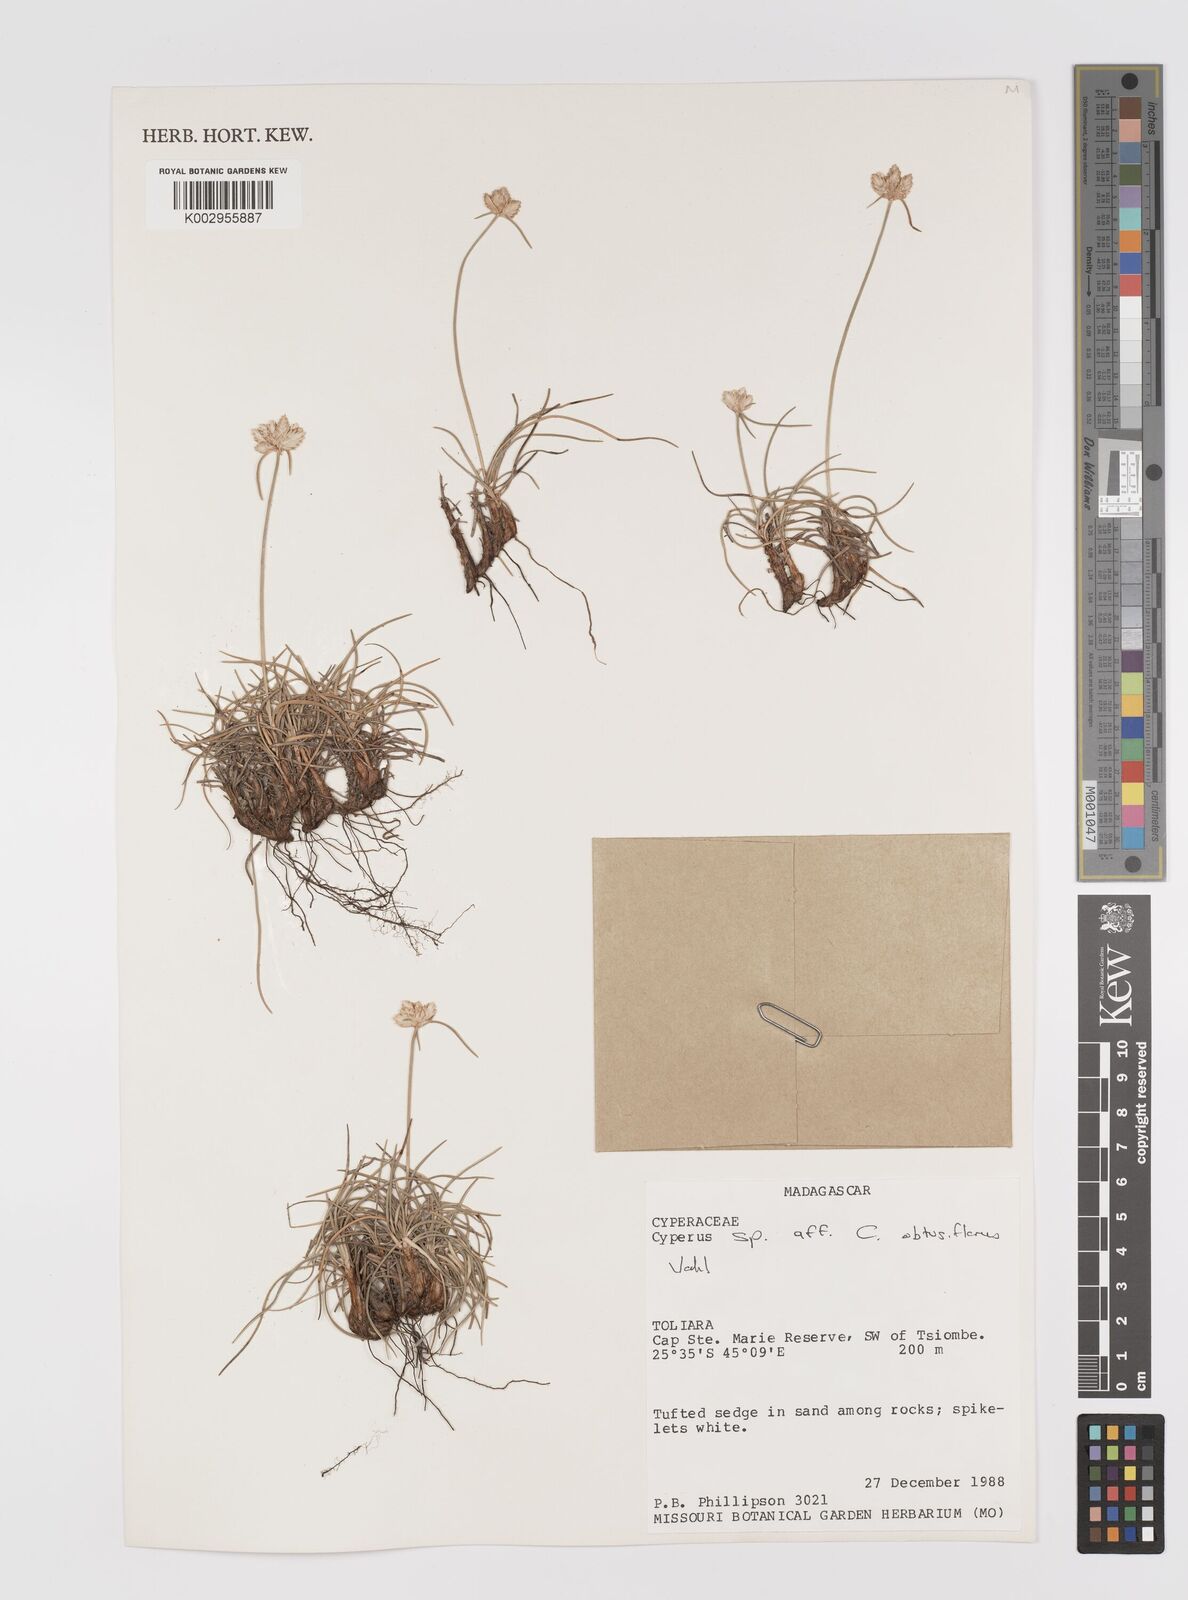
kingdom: Plantae
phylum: Tracheophyta
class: Liliopsida
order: Poales
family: Cyperaceae
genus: Cyperus
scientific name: Cyperus
